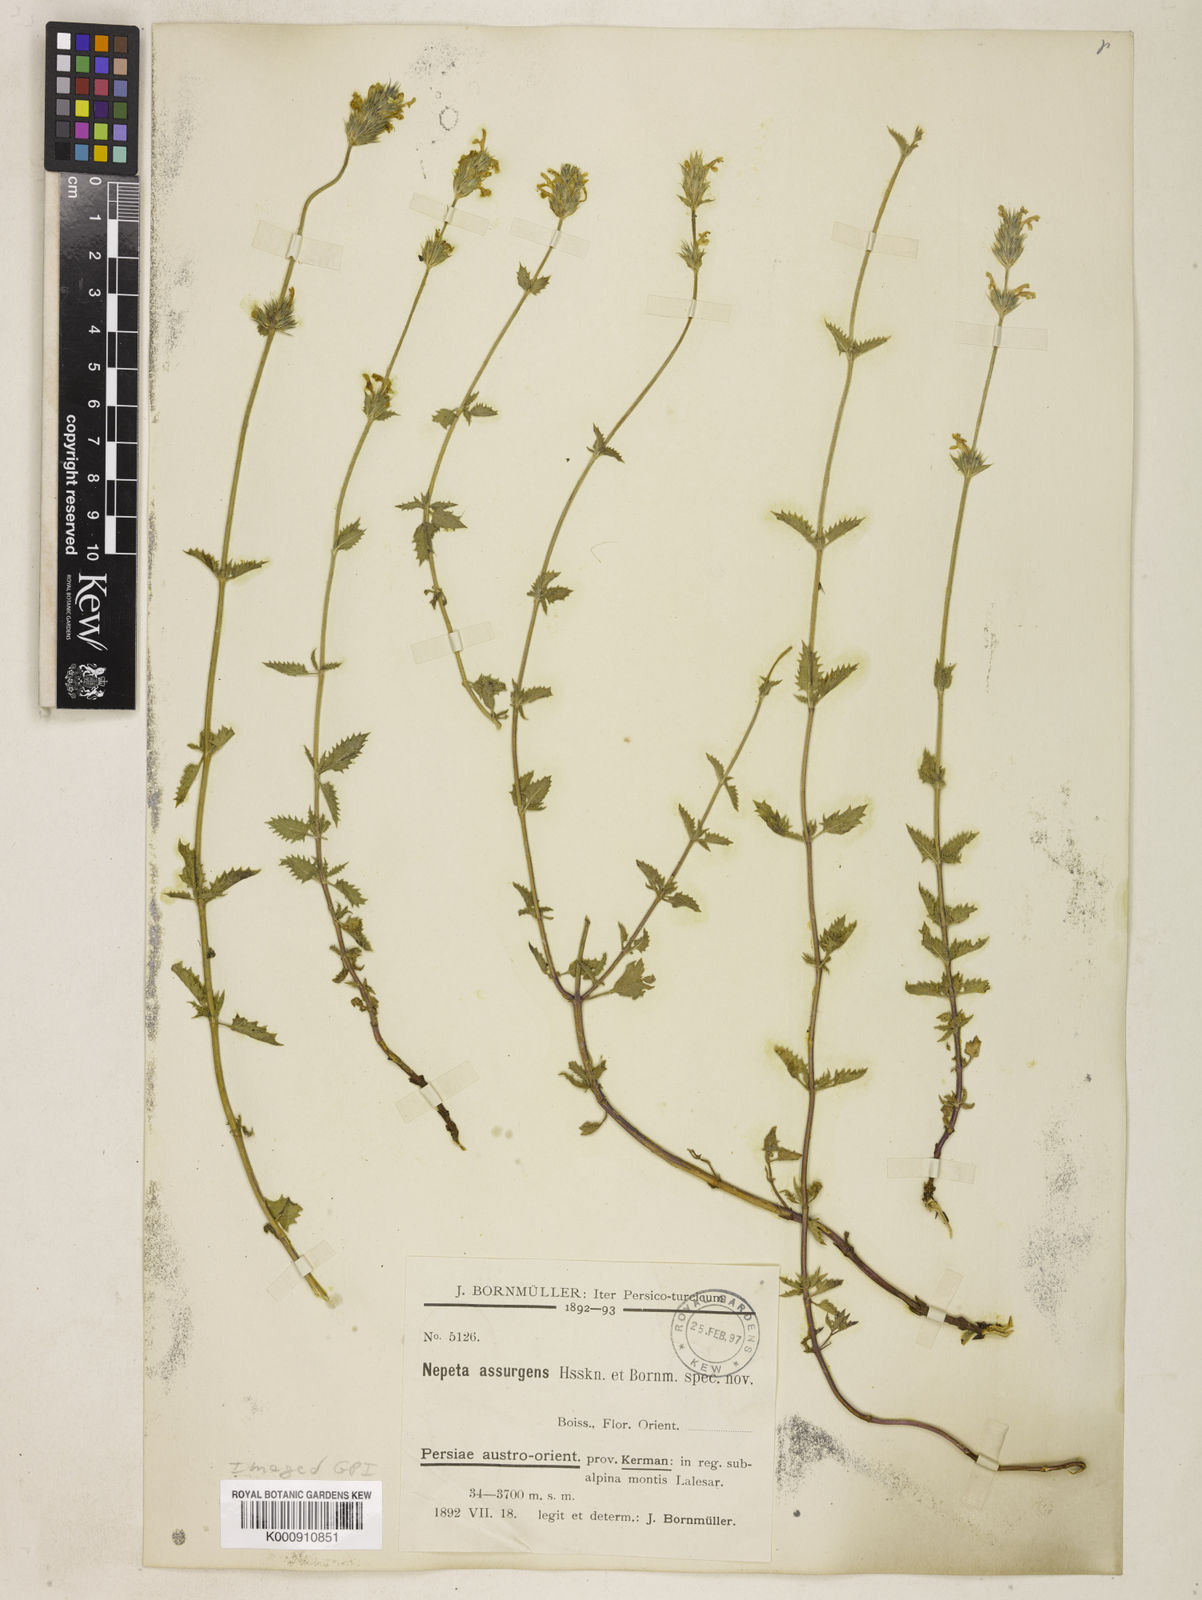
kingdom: Plantae
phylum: Tracheophyta
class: Magnoliopsida
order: Lamiales
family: Lamiaceae
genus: Nepeta
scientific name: Nepeta assurgens
